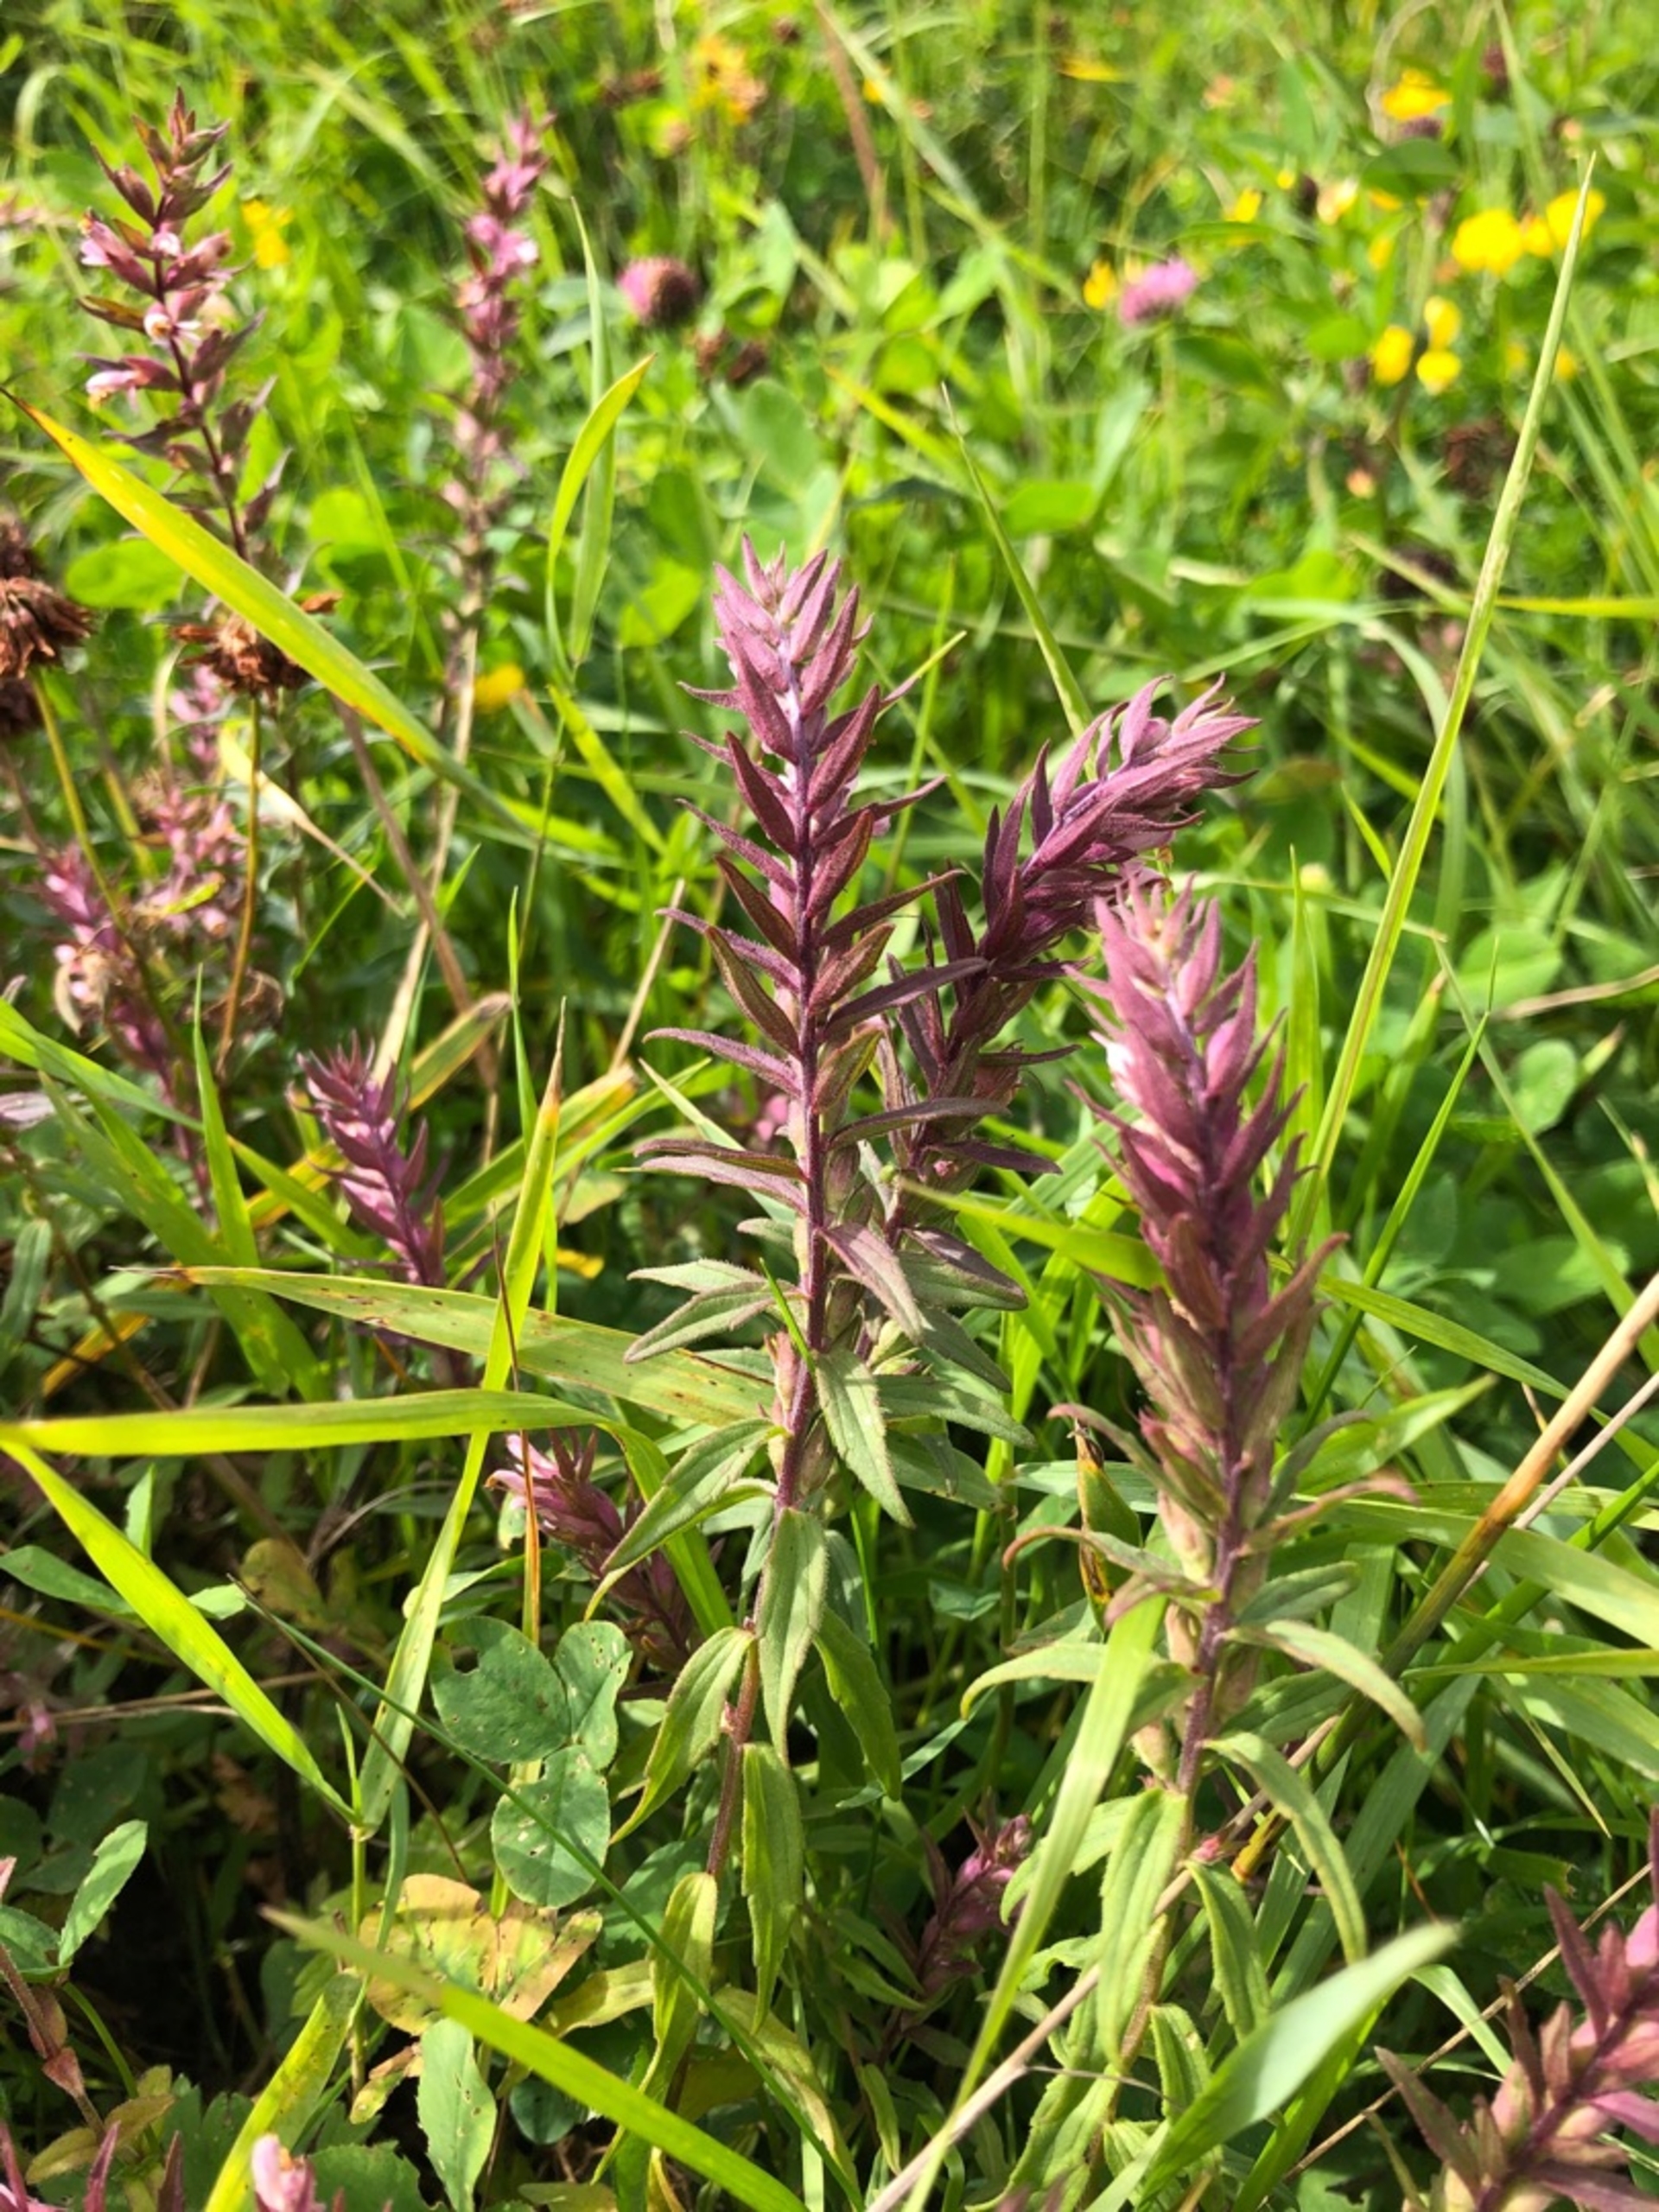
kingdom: Plantae
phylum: Tracheophyta
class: Magnoliopsida
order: Lamiales
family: Orobanchaceae
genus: Odontites
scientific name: Odontites vernus
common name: Mark-rødtop
